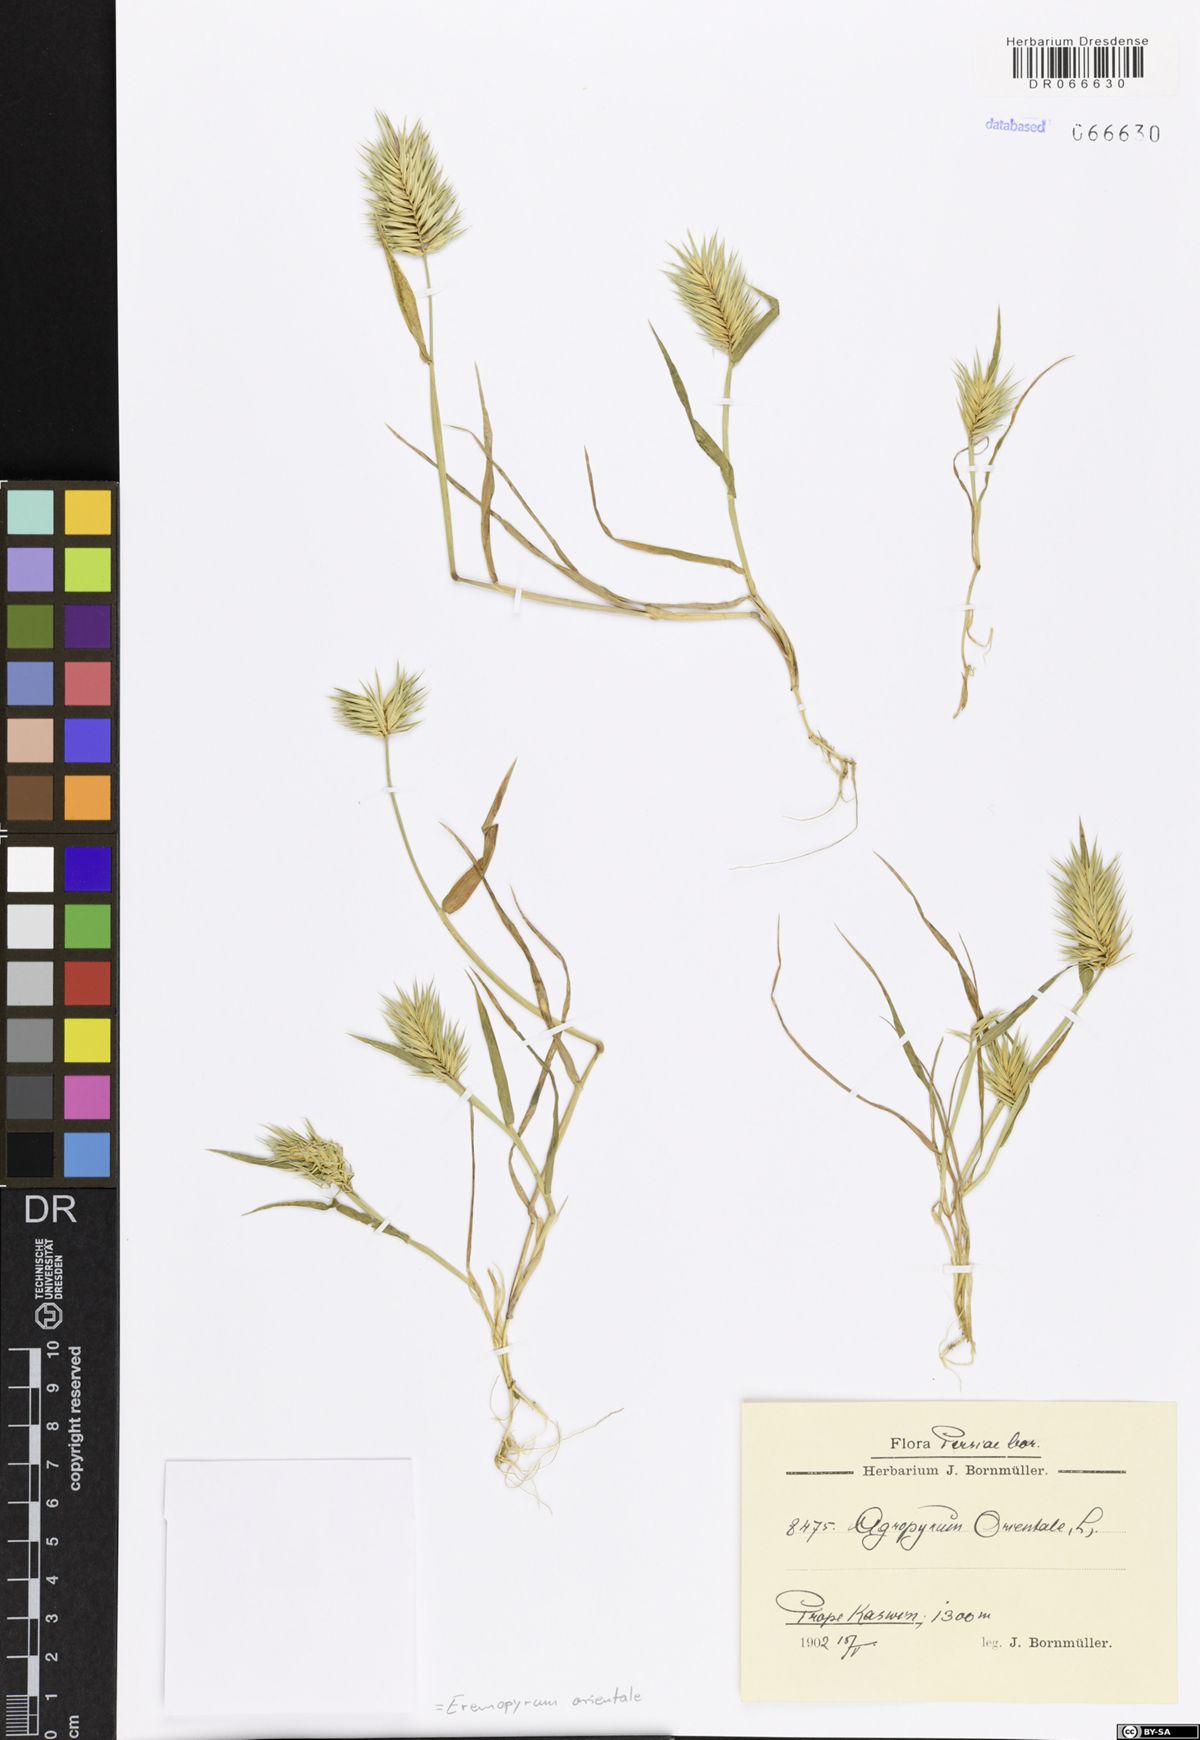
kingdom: Plantae
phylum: Tracheophyta
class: Liliopsida
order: Poales
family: Poaceae
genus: Eremopyrum
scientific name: Eremopyrum orientale
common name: Oriental false wheatgrass
